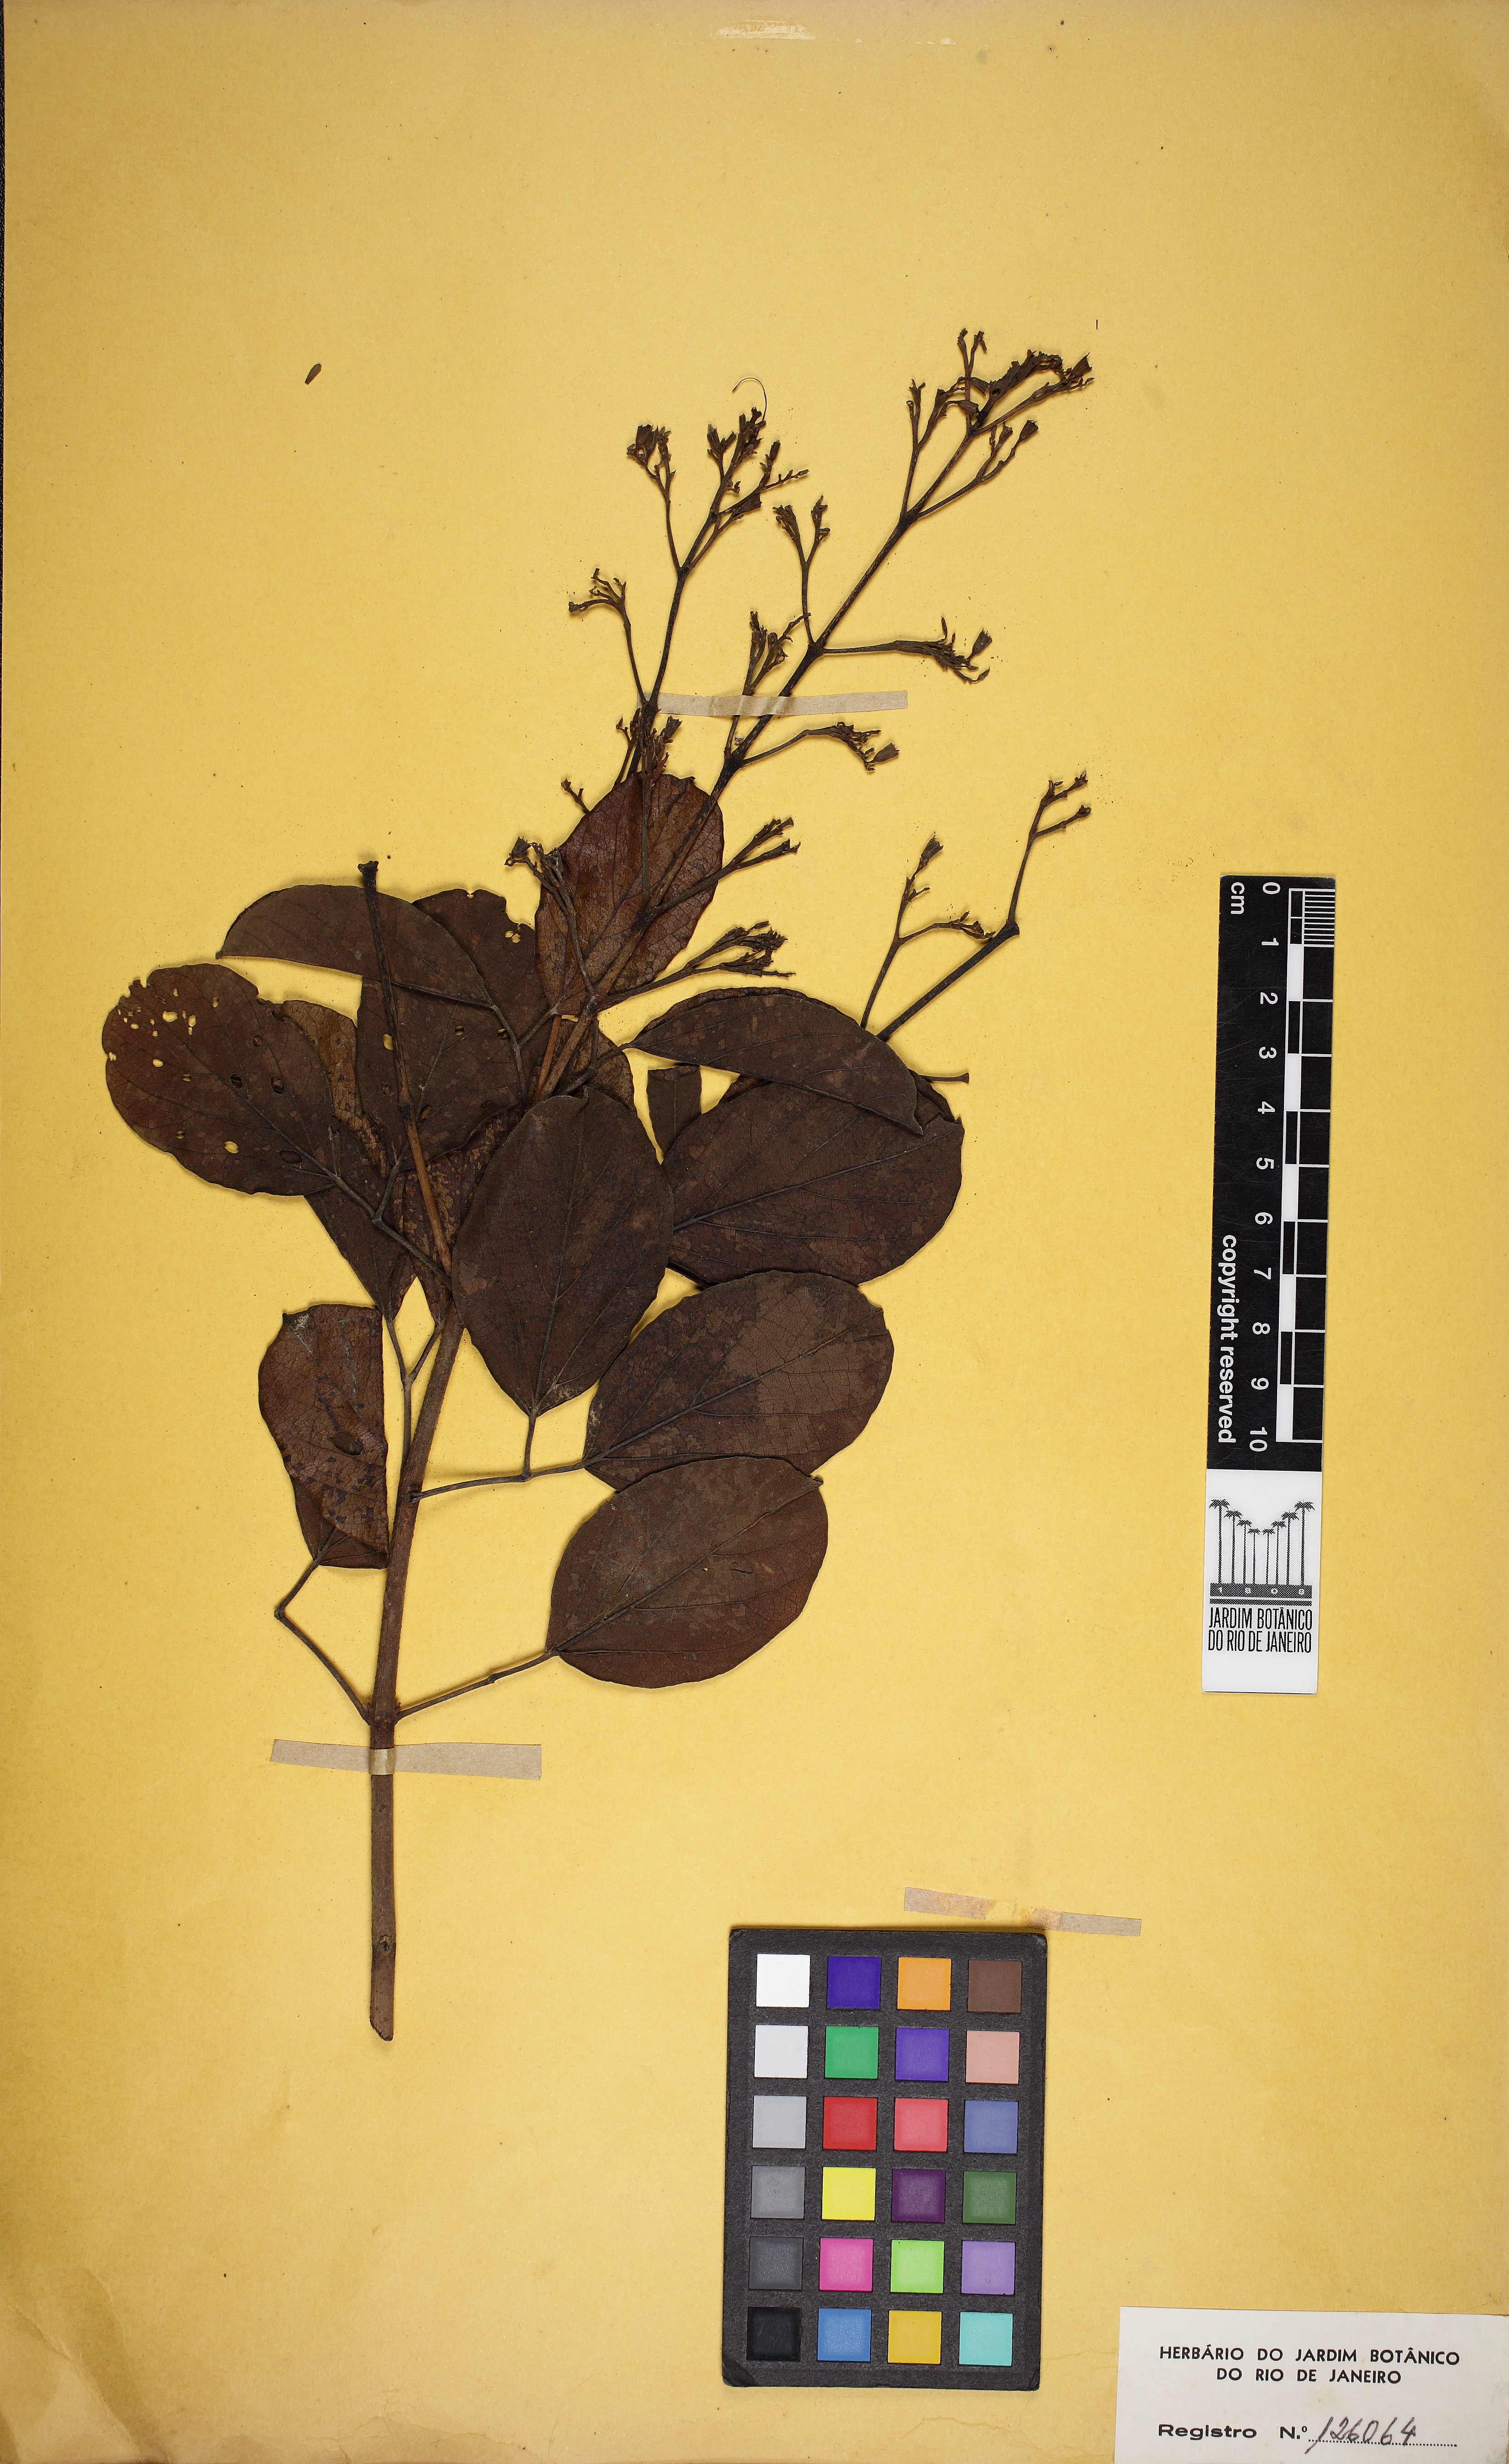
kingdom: Plantae
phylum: Tracheophyta
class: Magnoliopsida
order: Lamiales
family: Bignoniaceae
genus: Cuspidaria
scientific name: Cuspidaria lasiantha
